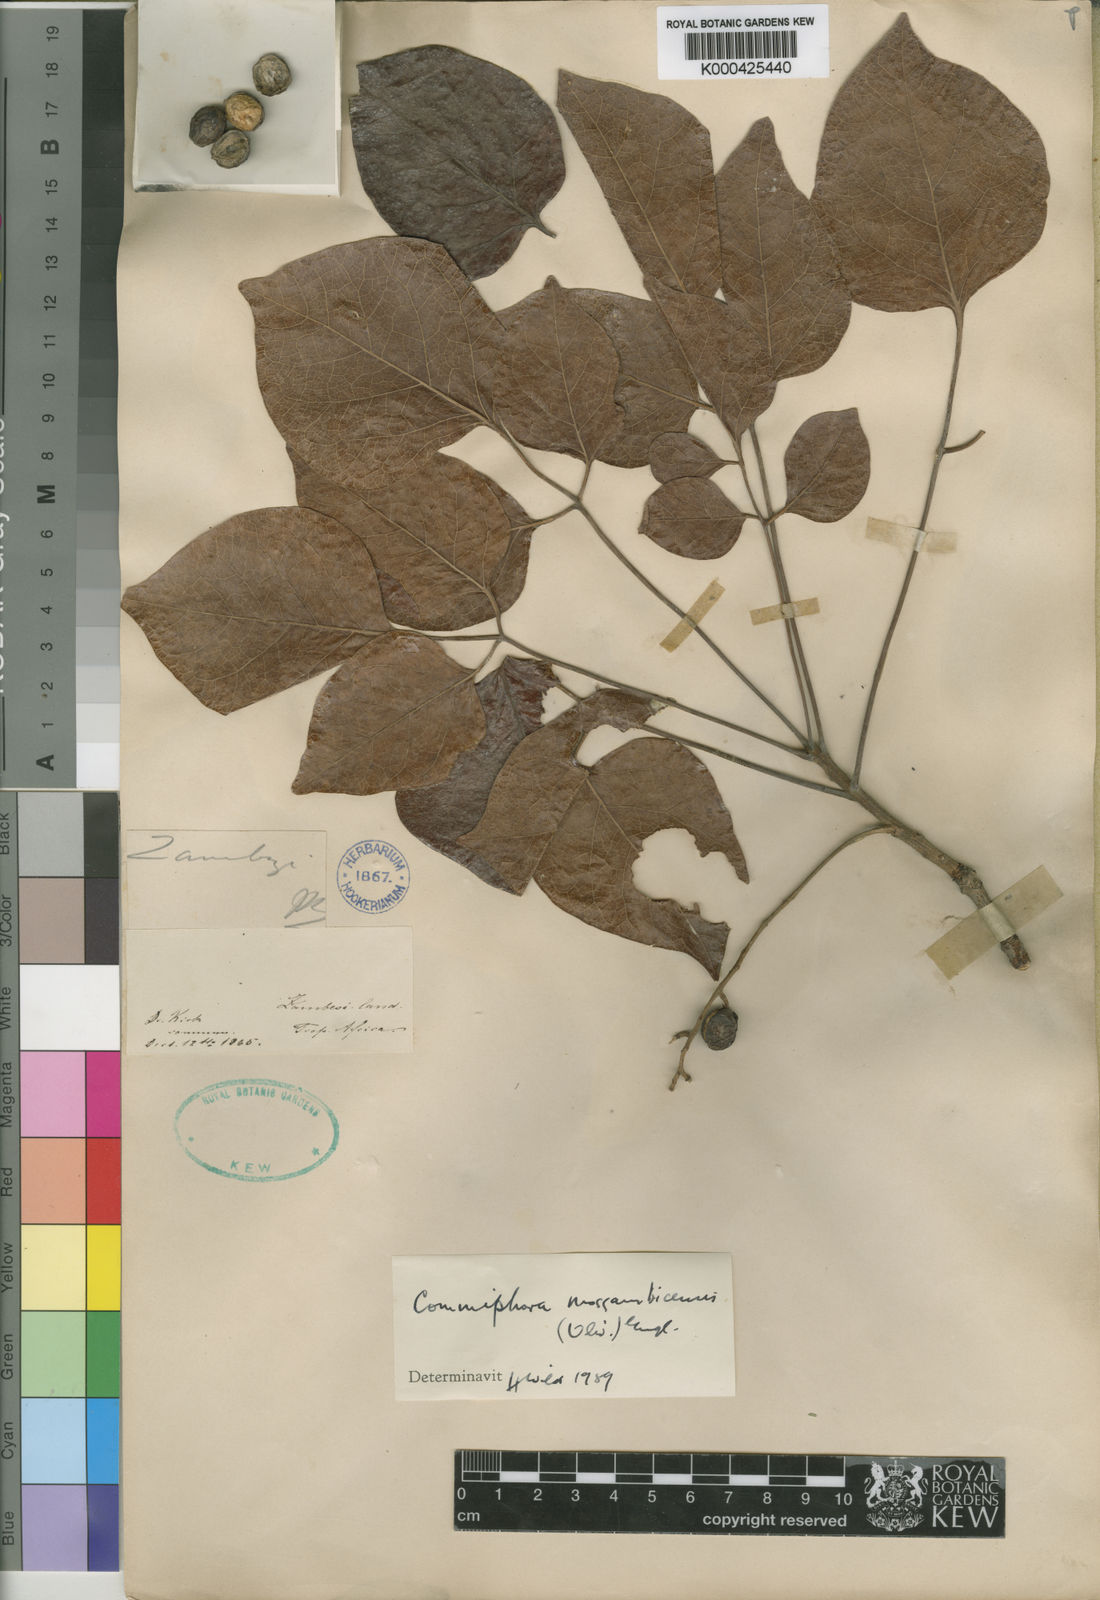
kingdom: Plantae
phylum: Tracheophyta
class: Magnoliopsida
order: Sapindales
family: Burseraceae
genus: Commiphora
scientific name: Commiphora mossambicensis
